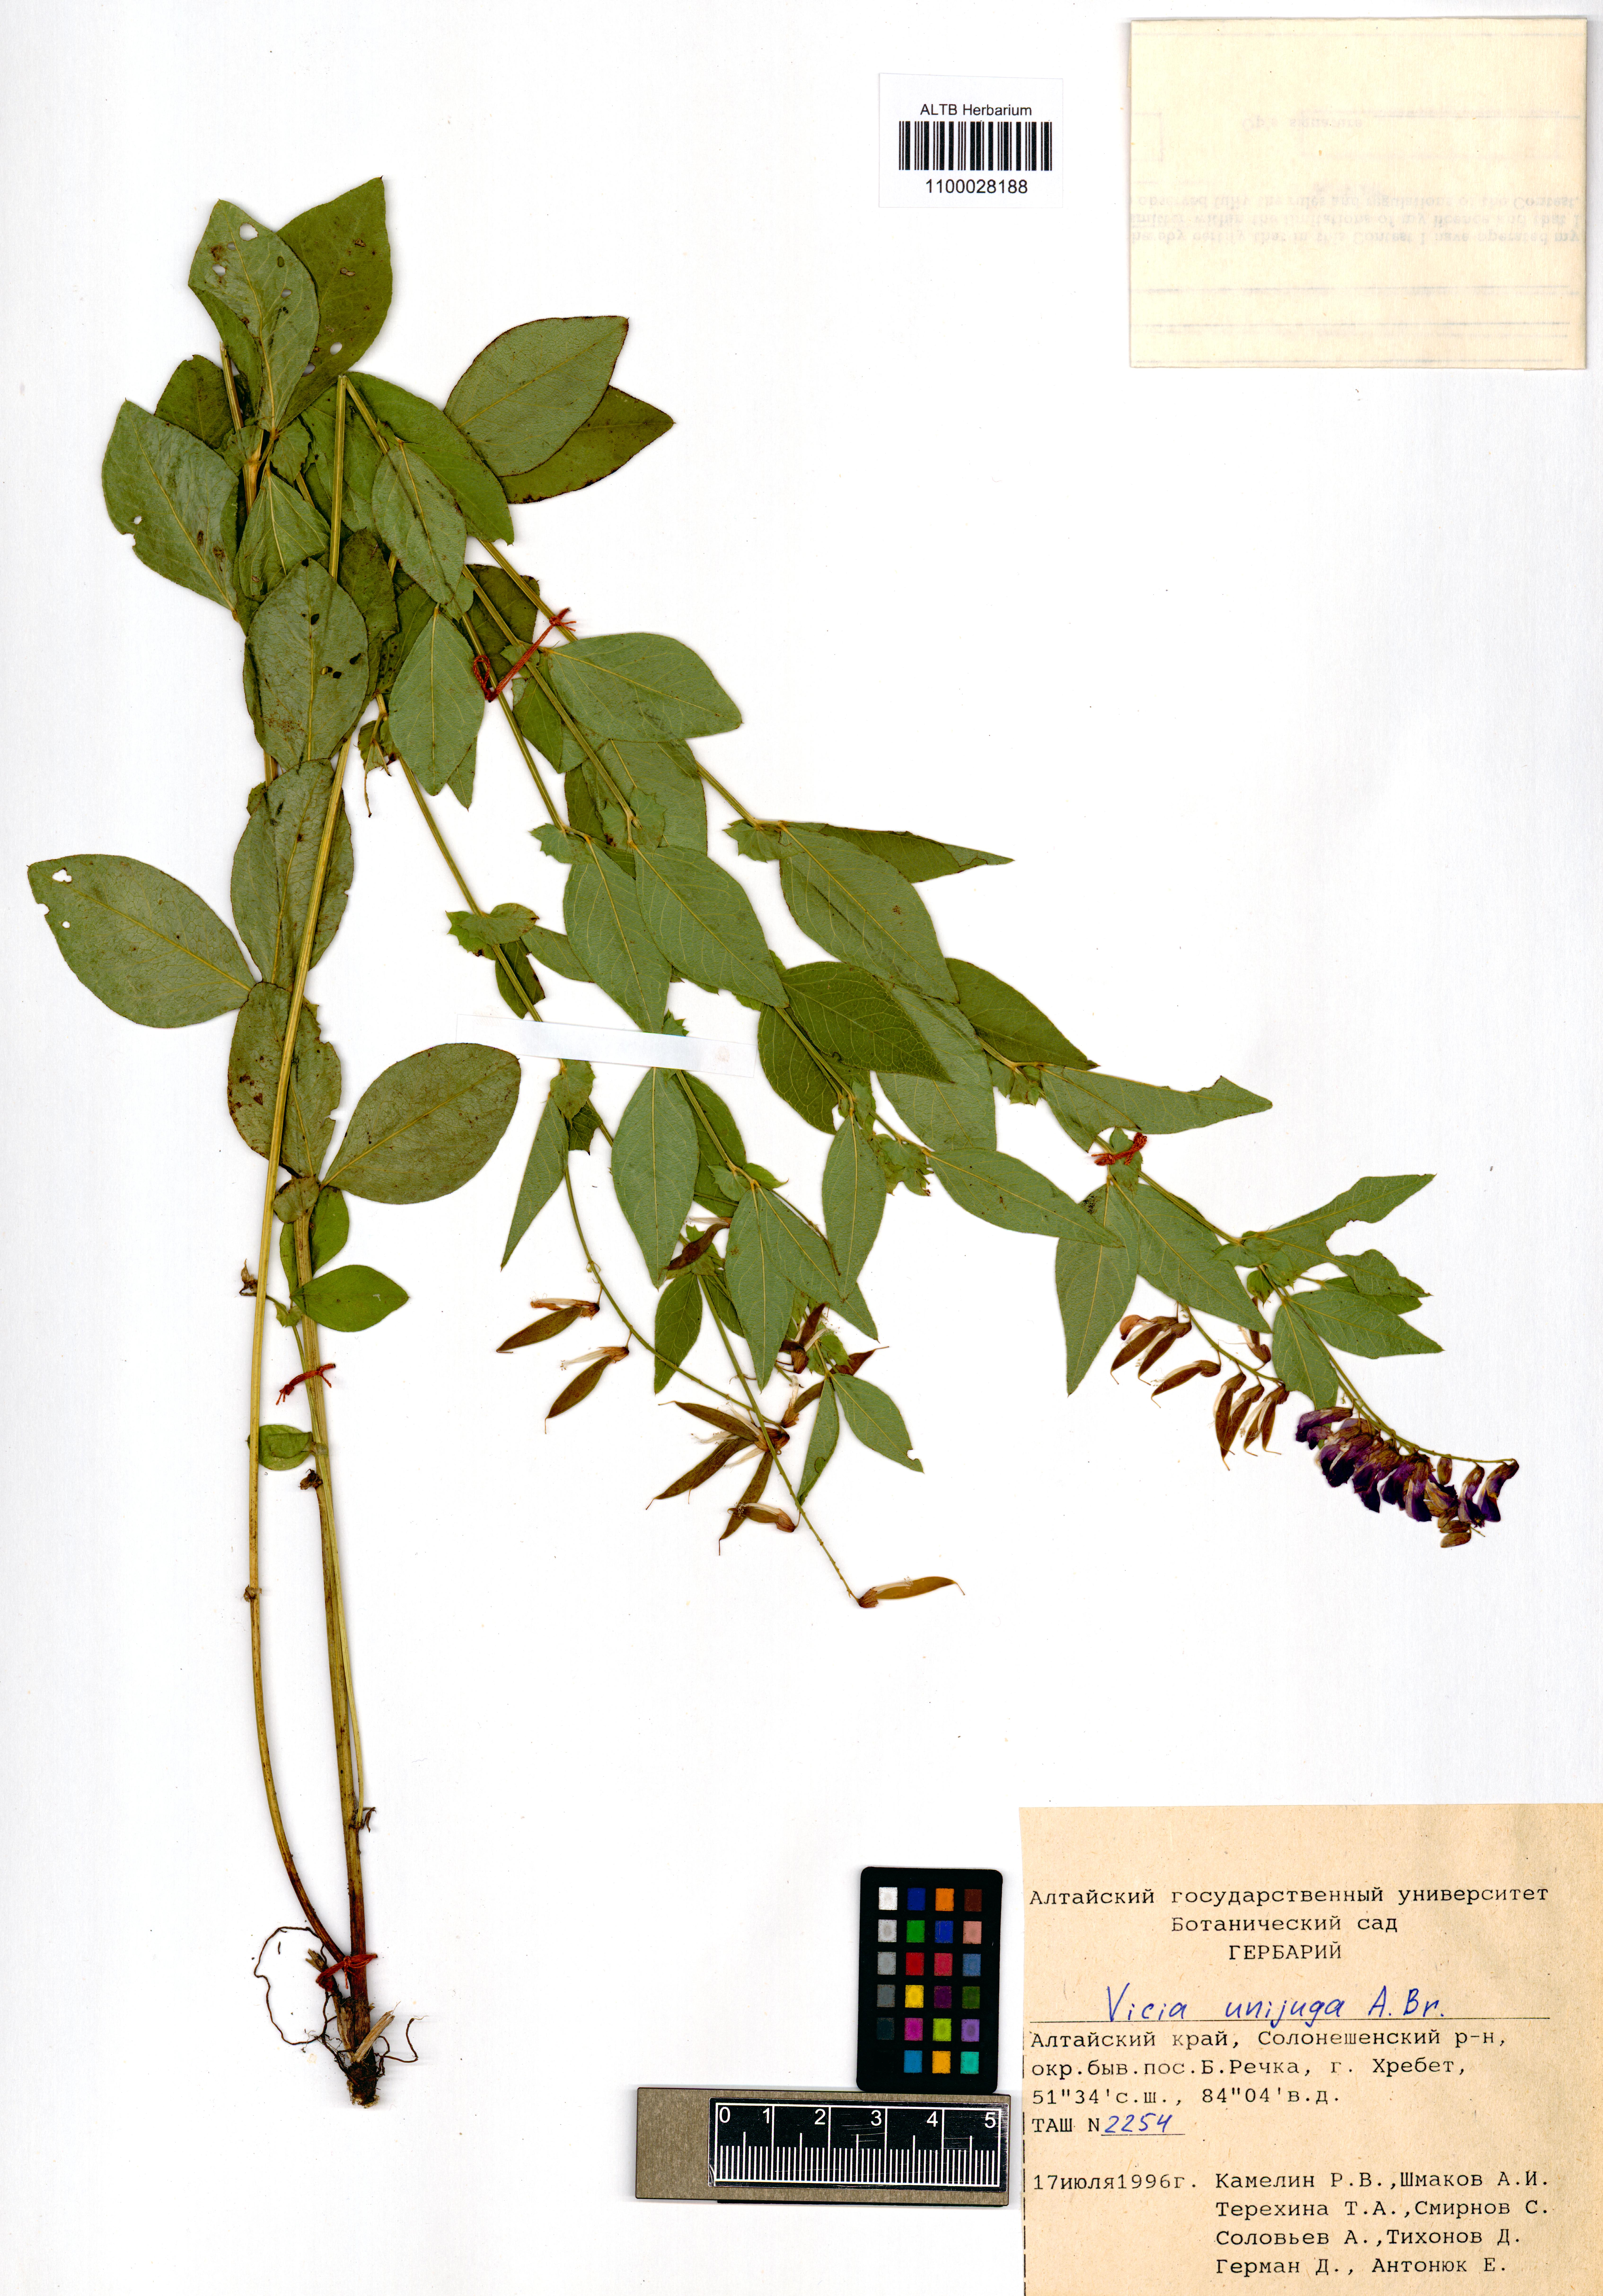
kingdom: Plantae
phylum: Tracheophyta
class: Magnoliopsida
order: Fabales
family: Fabaceae
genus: Vicia
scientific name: Vicia unijuga
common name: Two-leaf vetch
